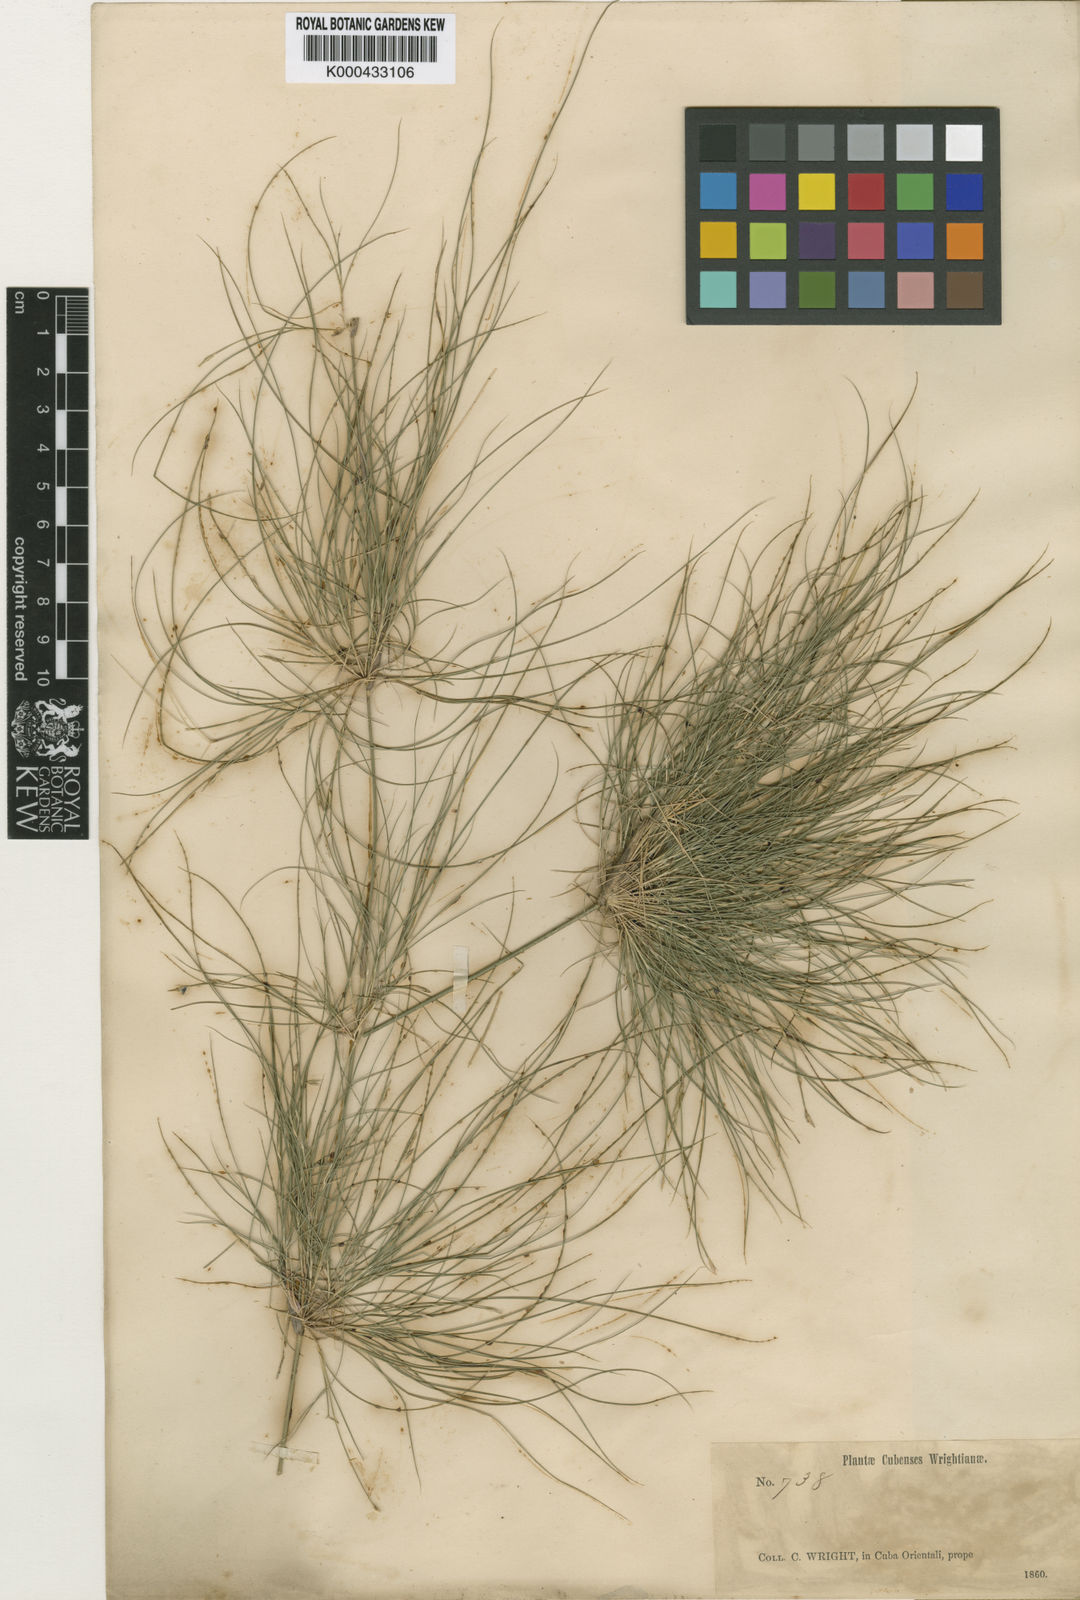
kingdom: Plantae
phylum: Tracheophyta
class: Liliopsida
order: Poales
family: Poaceae
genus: Tibisia
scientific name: Tibisia farcta
